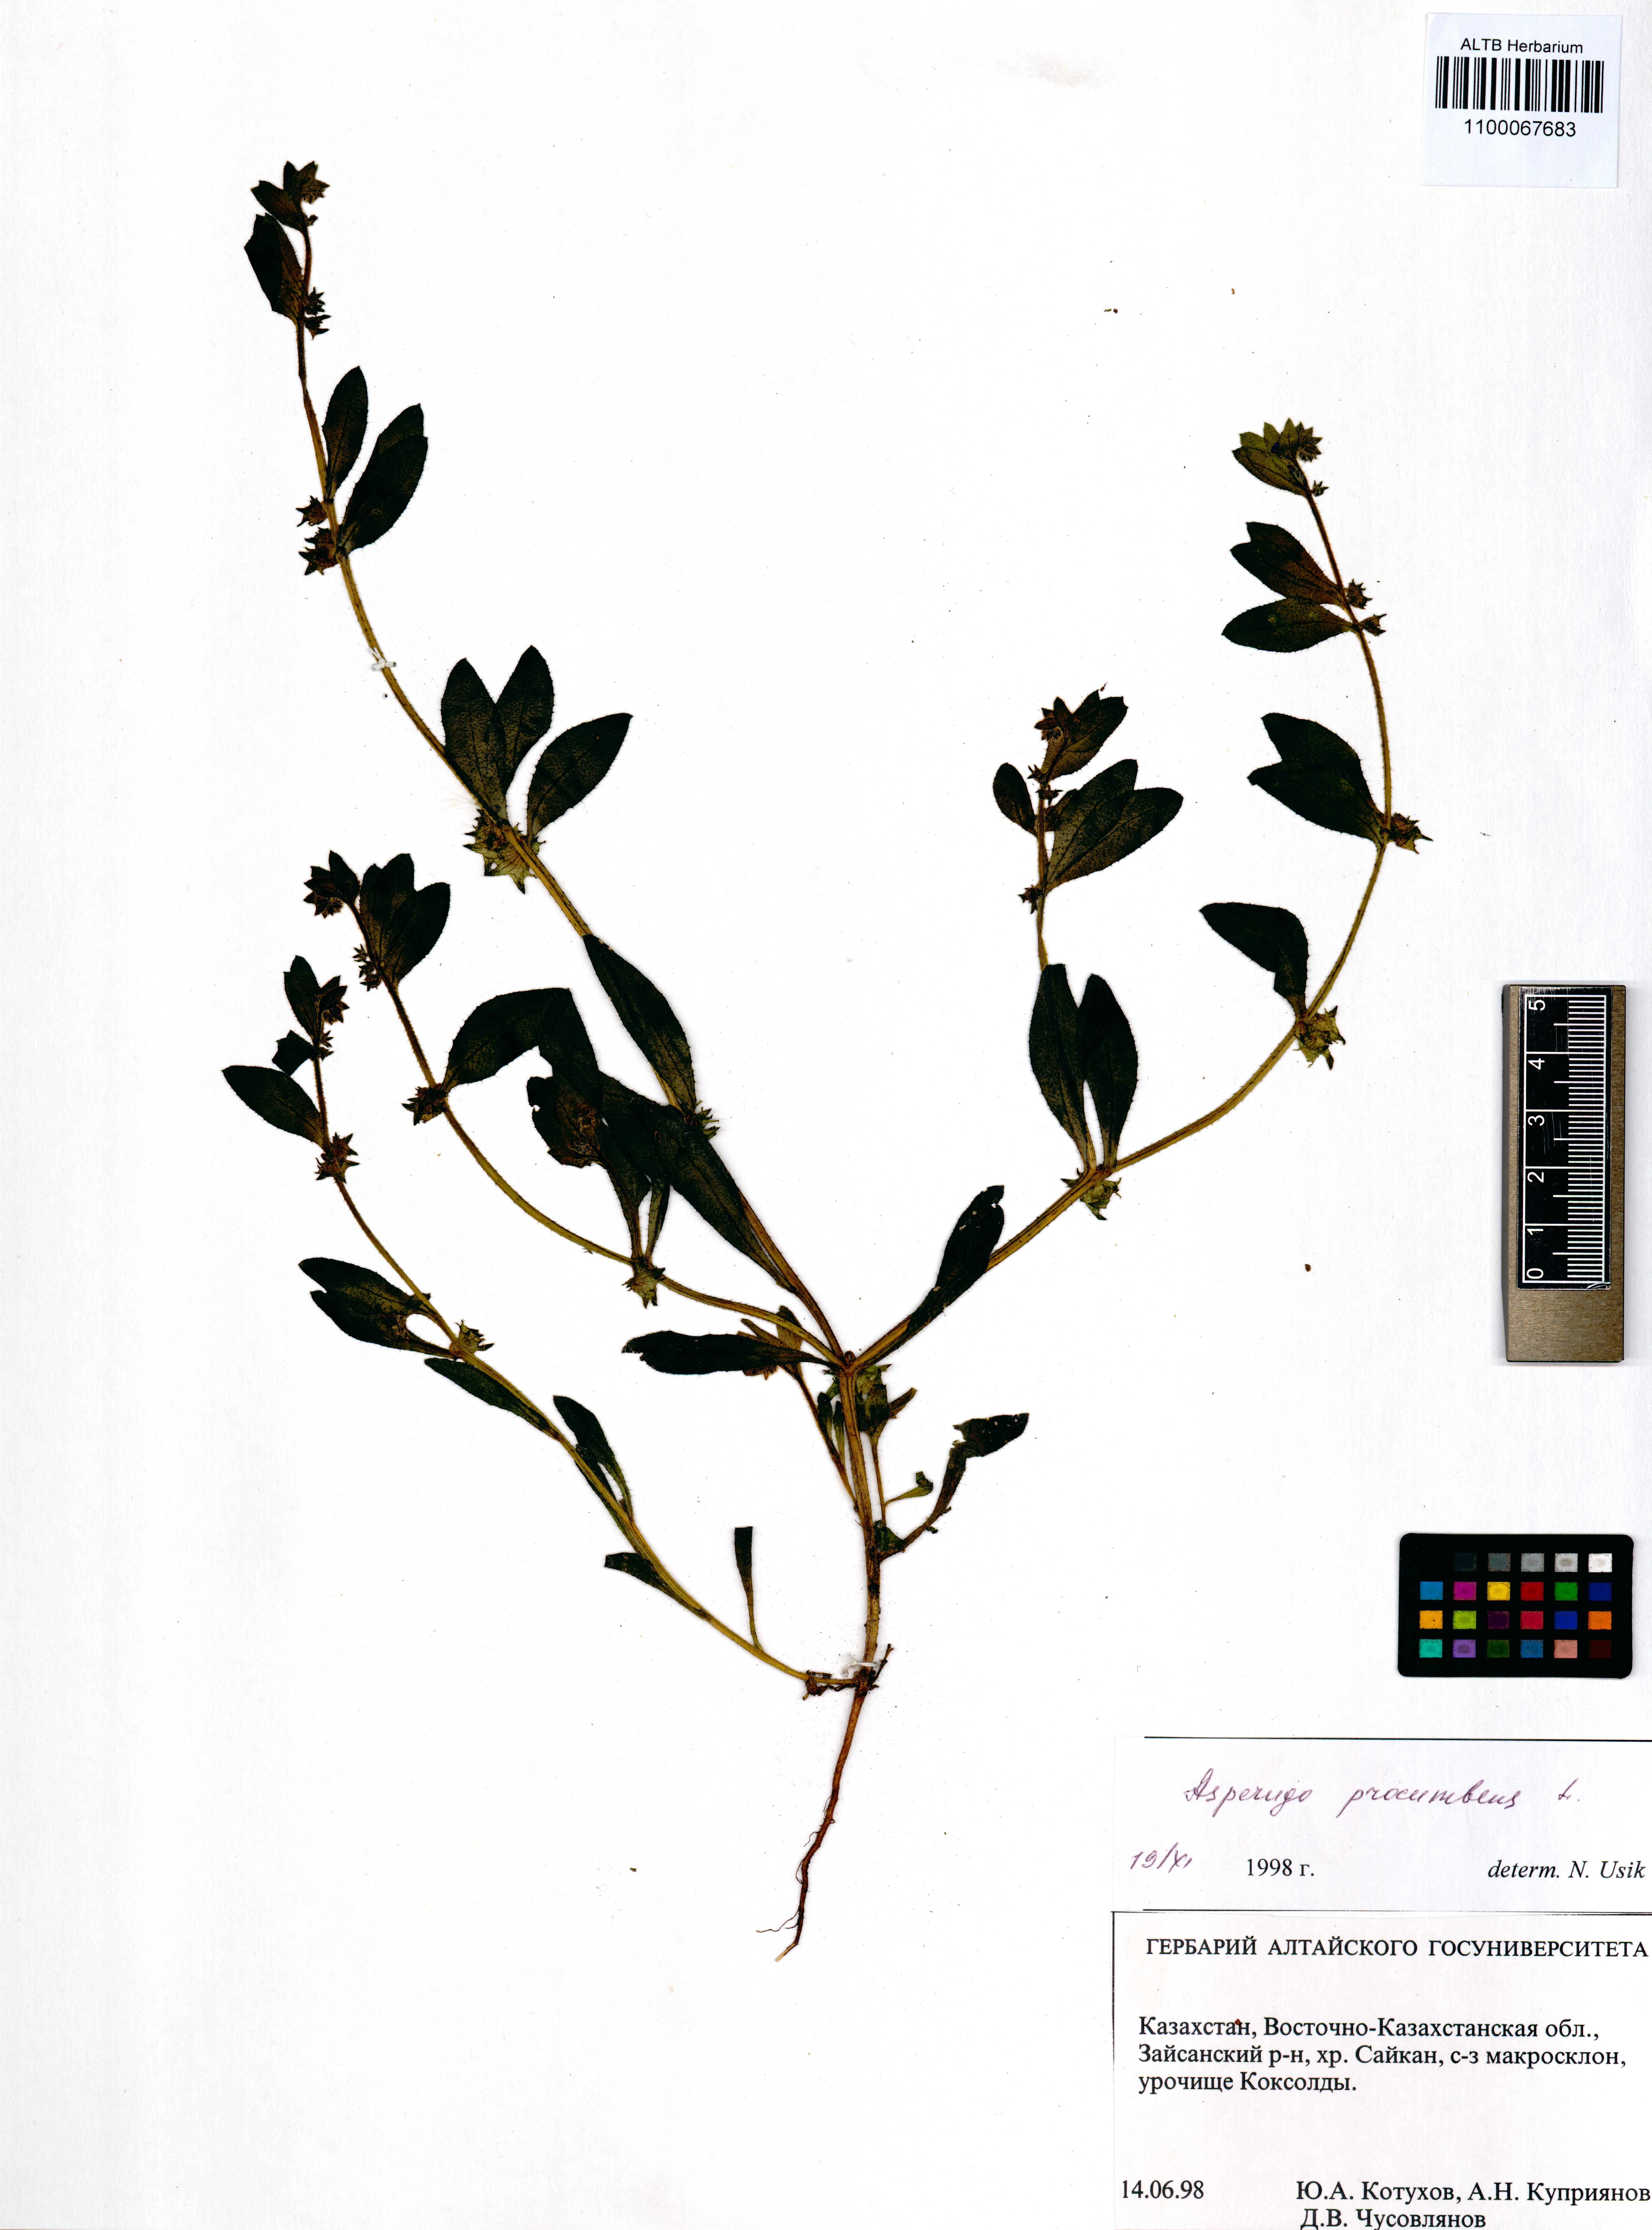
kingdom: Plantae
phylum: Tracheophyta
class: Magnoliopsida
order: Boraginales
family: Boraginaceae
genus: Asperugo
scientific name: Asperugo procumbens
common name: Madwort
